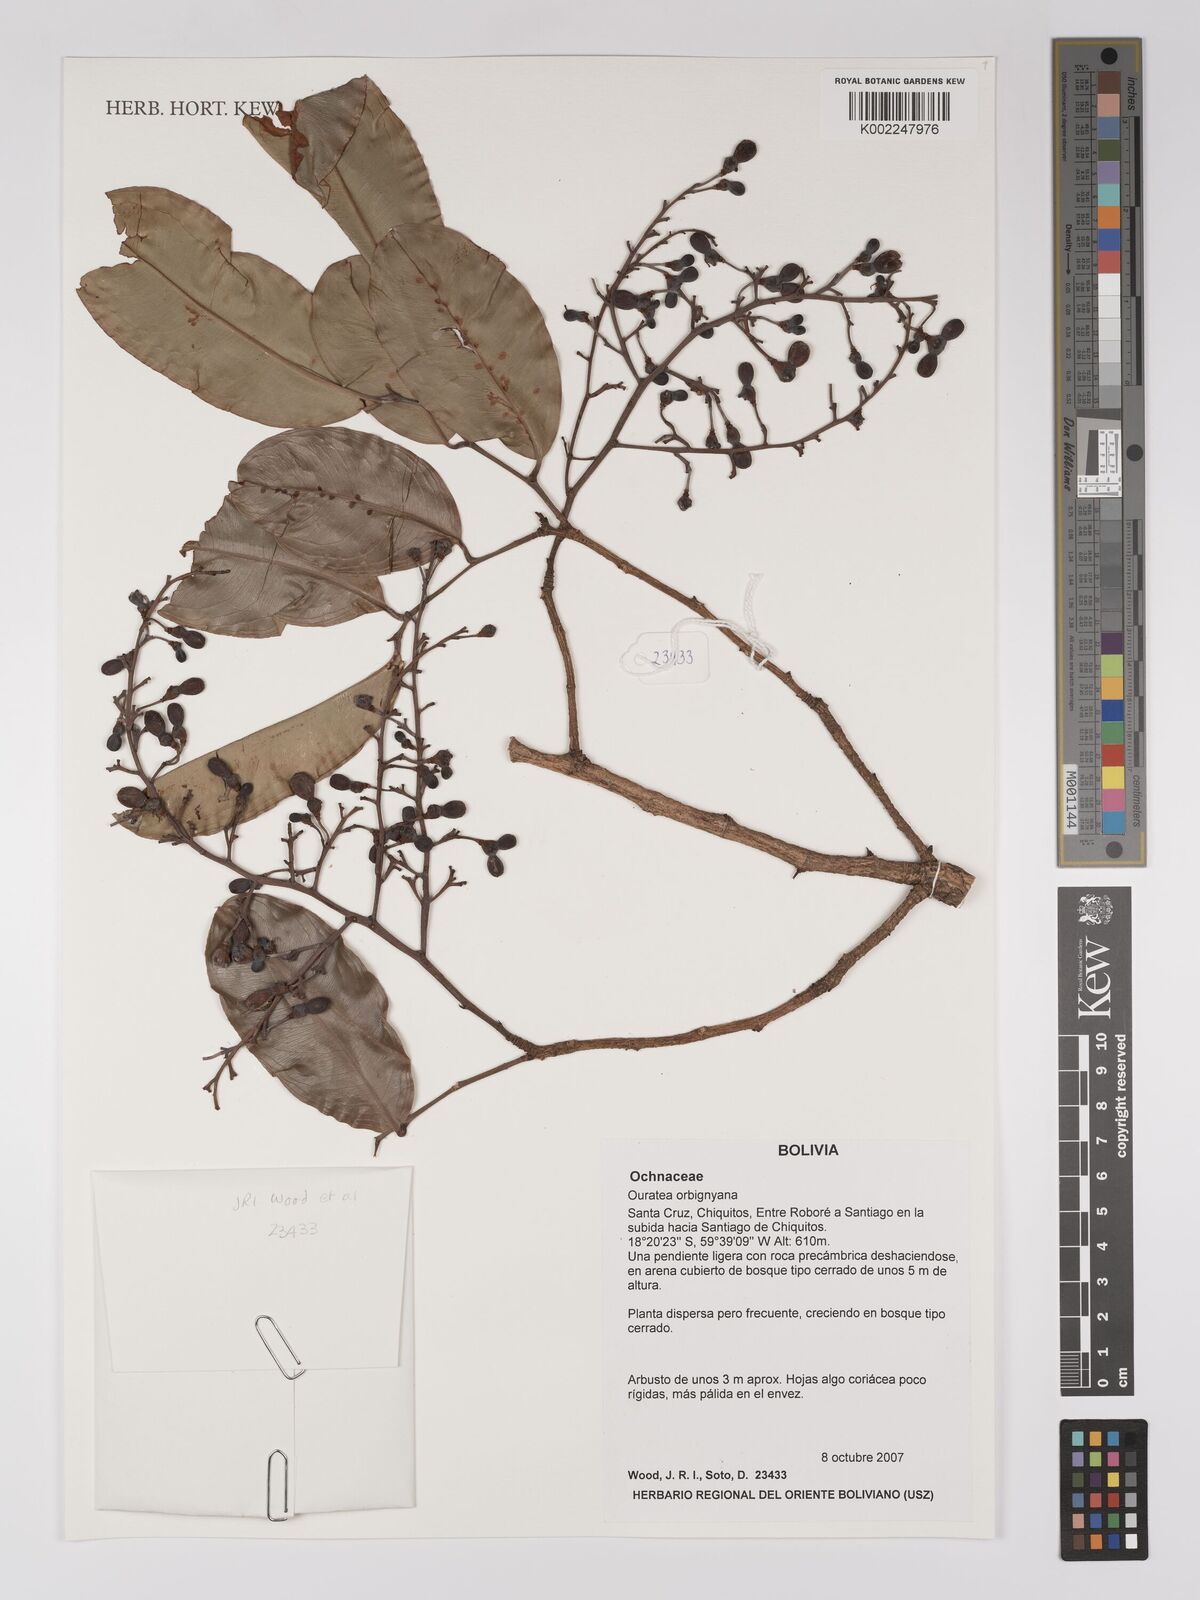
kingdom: Plantae
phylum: Tracheophyta
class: Magnoliopsida
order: Malpighiales
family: Ochnaceae
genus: Ouratea
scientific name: Ouratea orbignyana
